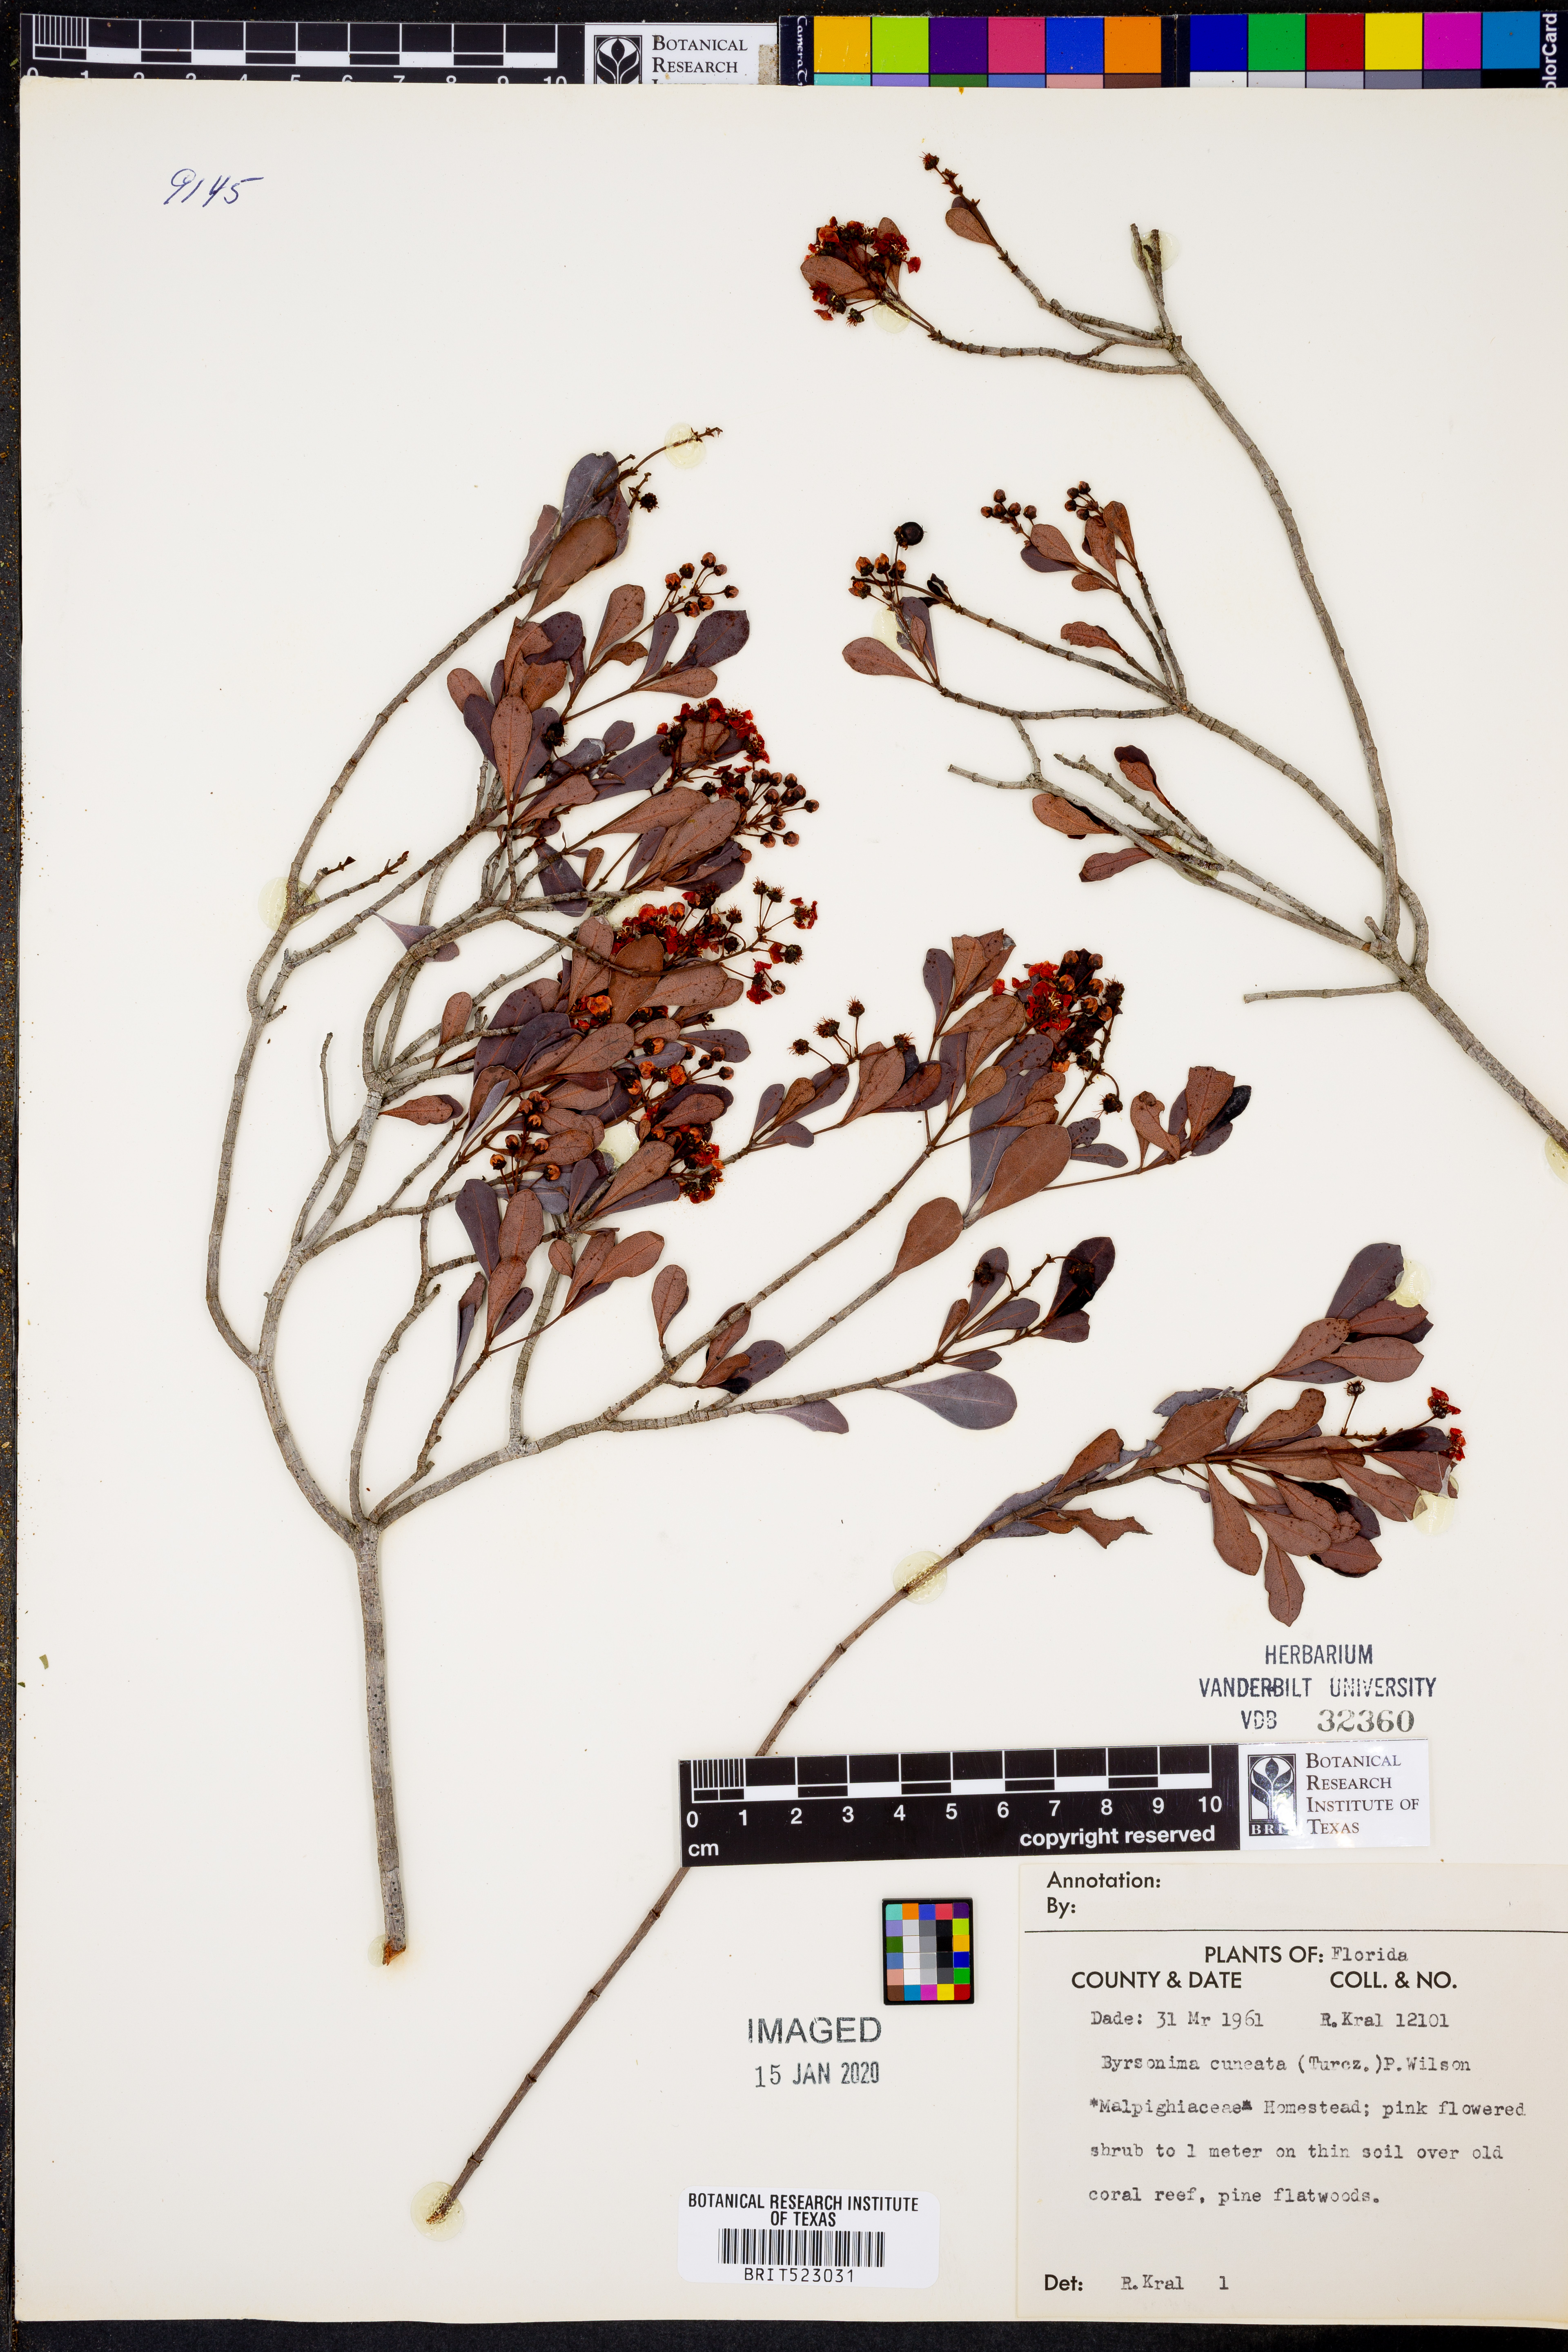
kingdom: Plantae
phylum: Tracheophyta
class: Magnoliopsida
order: Malpighiales
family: Malpighiaceae
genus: Byrsonima
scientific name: Byrsonima lucida
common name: Clam-cherry
